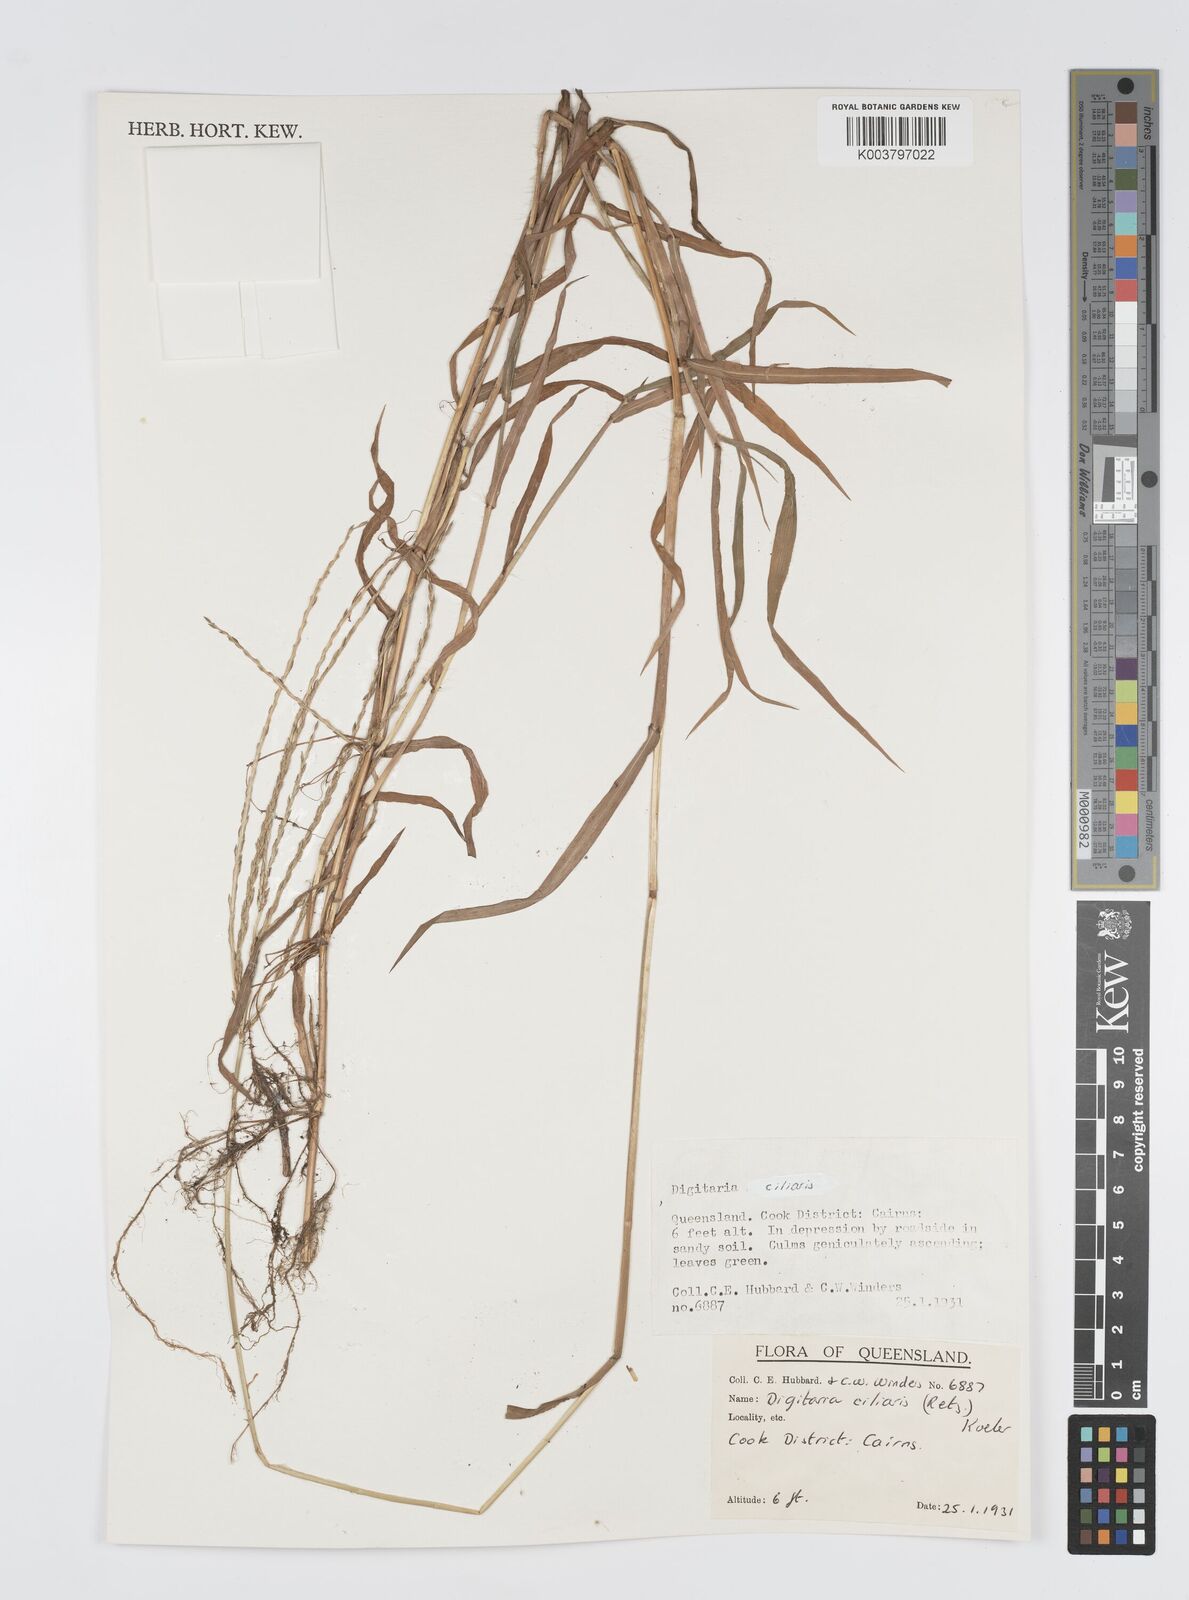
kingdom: Plantae
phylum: Tracheophyta
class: Liliopsida
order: Poales
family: Poaceae
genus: Digitaria
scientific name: Digitaria ciliaris
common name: Tropical finger-grass
